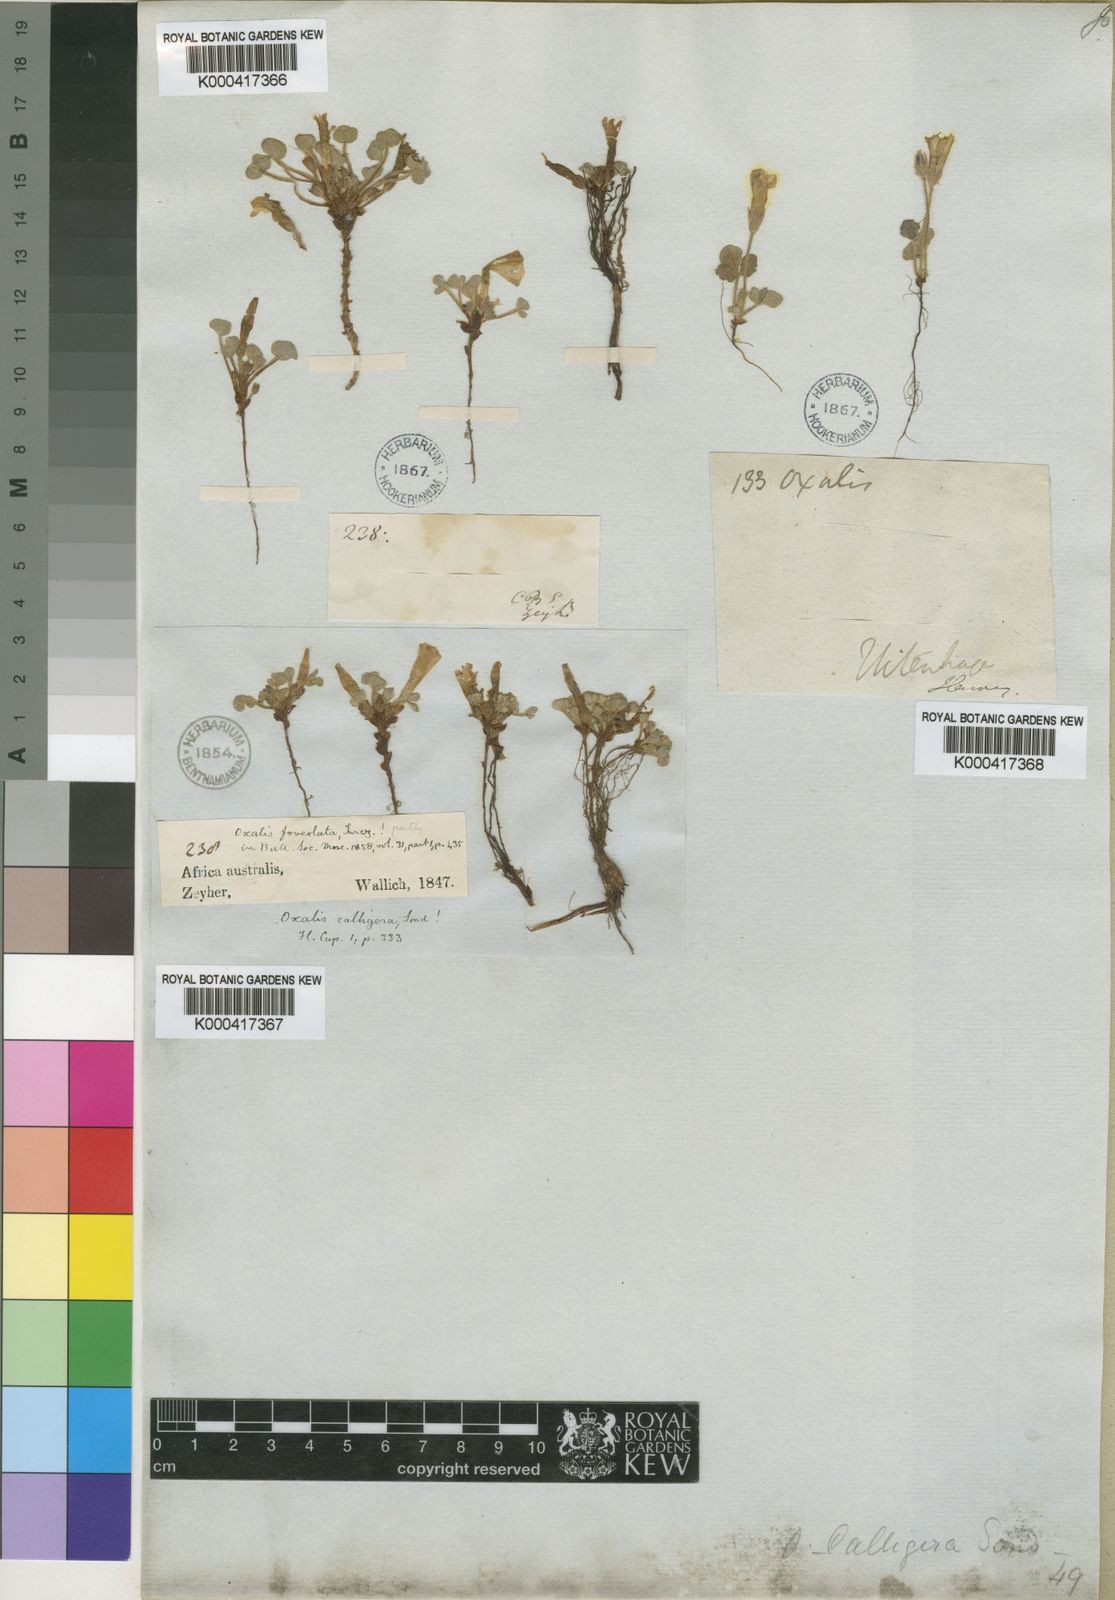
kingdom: Plantae
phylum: Tracheophyta
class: Magnoliopsida
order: Oxalidales
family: Oxalidaceae
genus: Oxalis
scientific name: Oxalis foveolata
